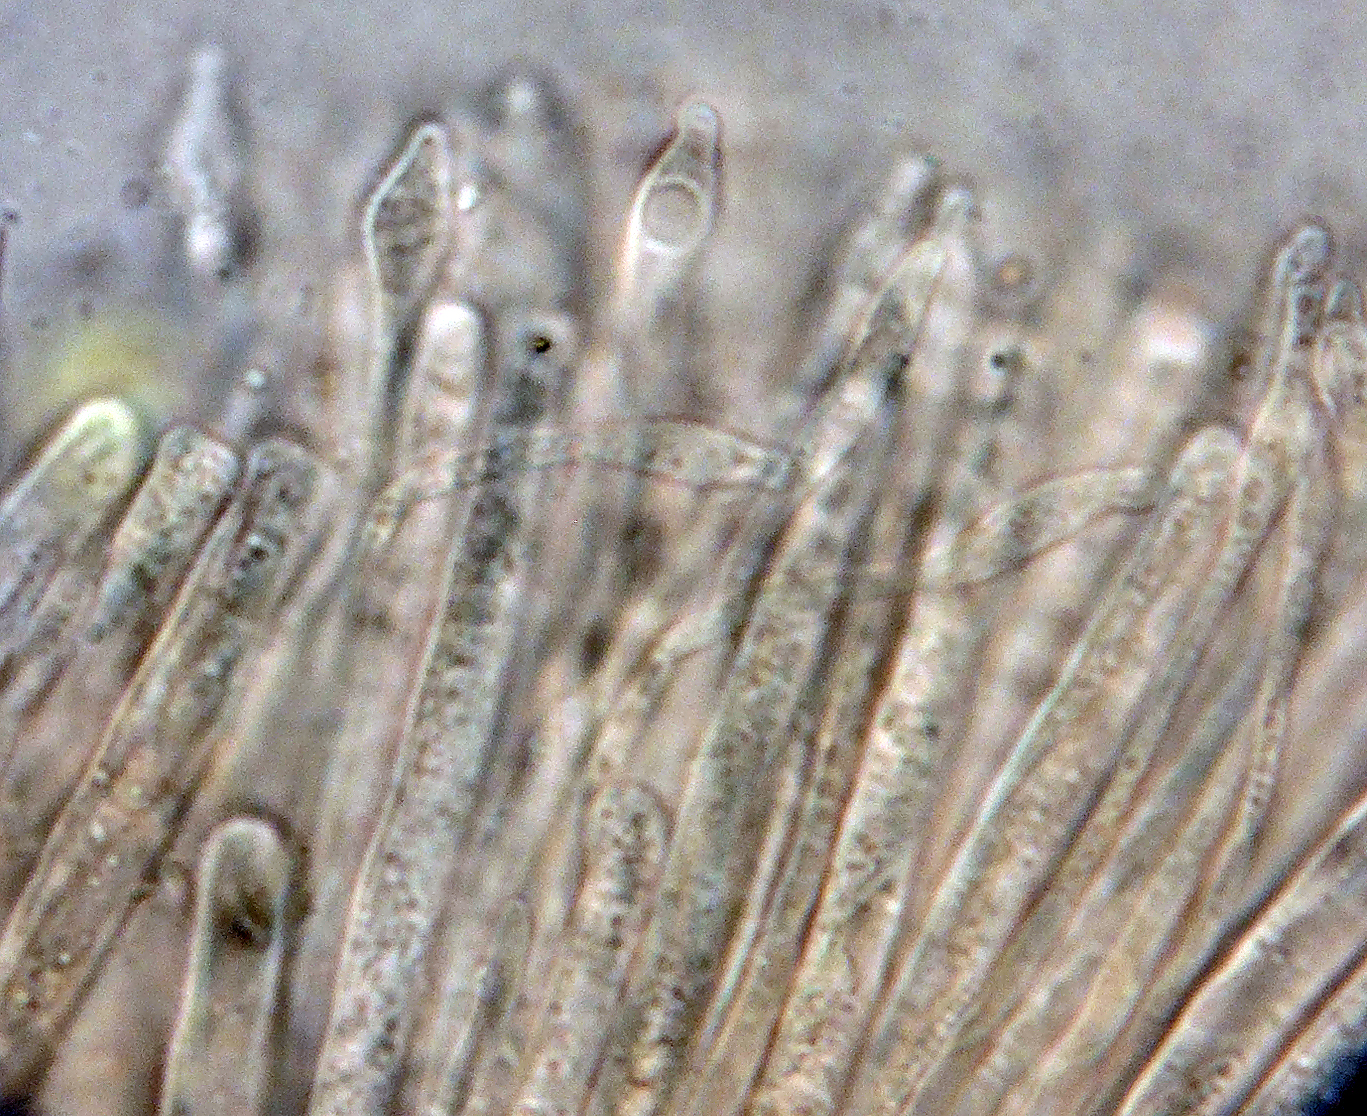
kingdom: Fungi
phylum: Ascomycota
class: Orbiliomycetes
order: Orbiliales
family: Orbiliaceae
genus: Orbilia
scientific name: Orbilia carpoboloides
